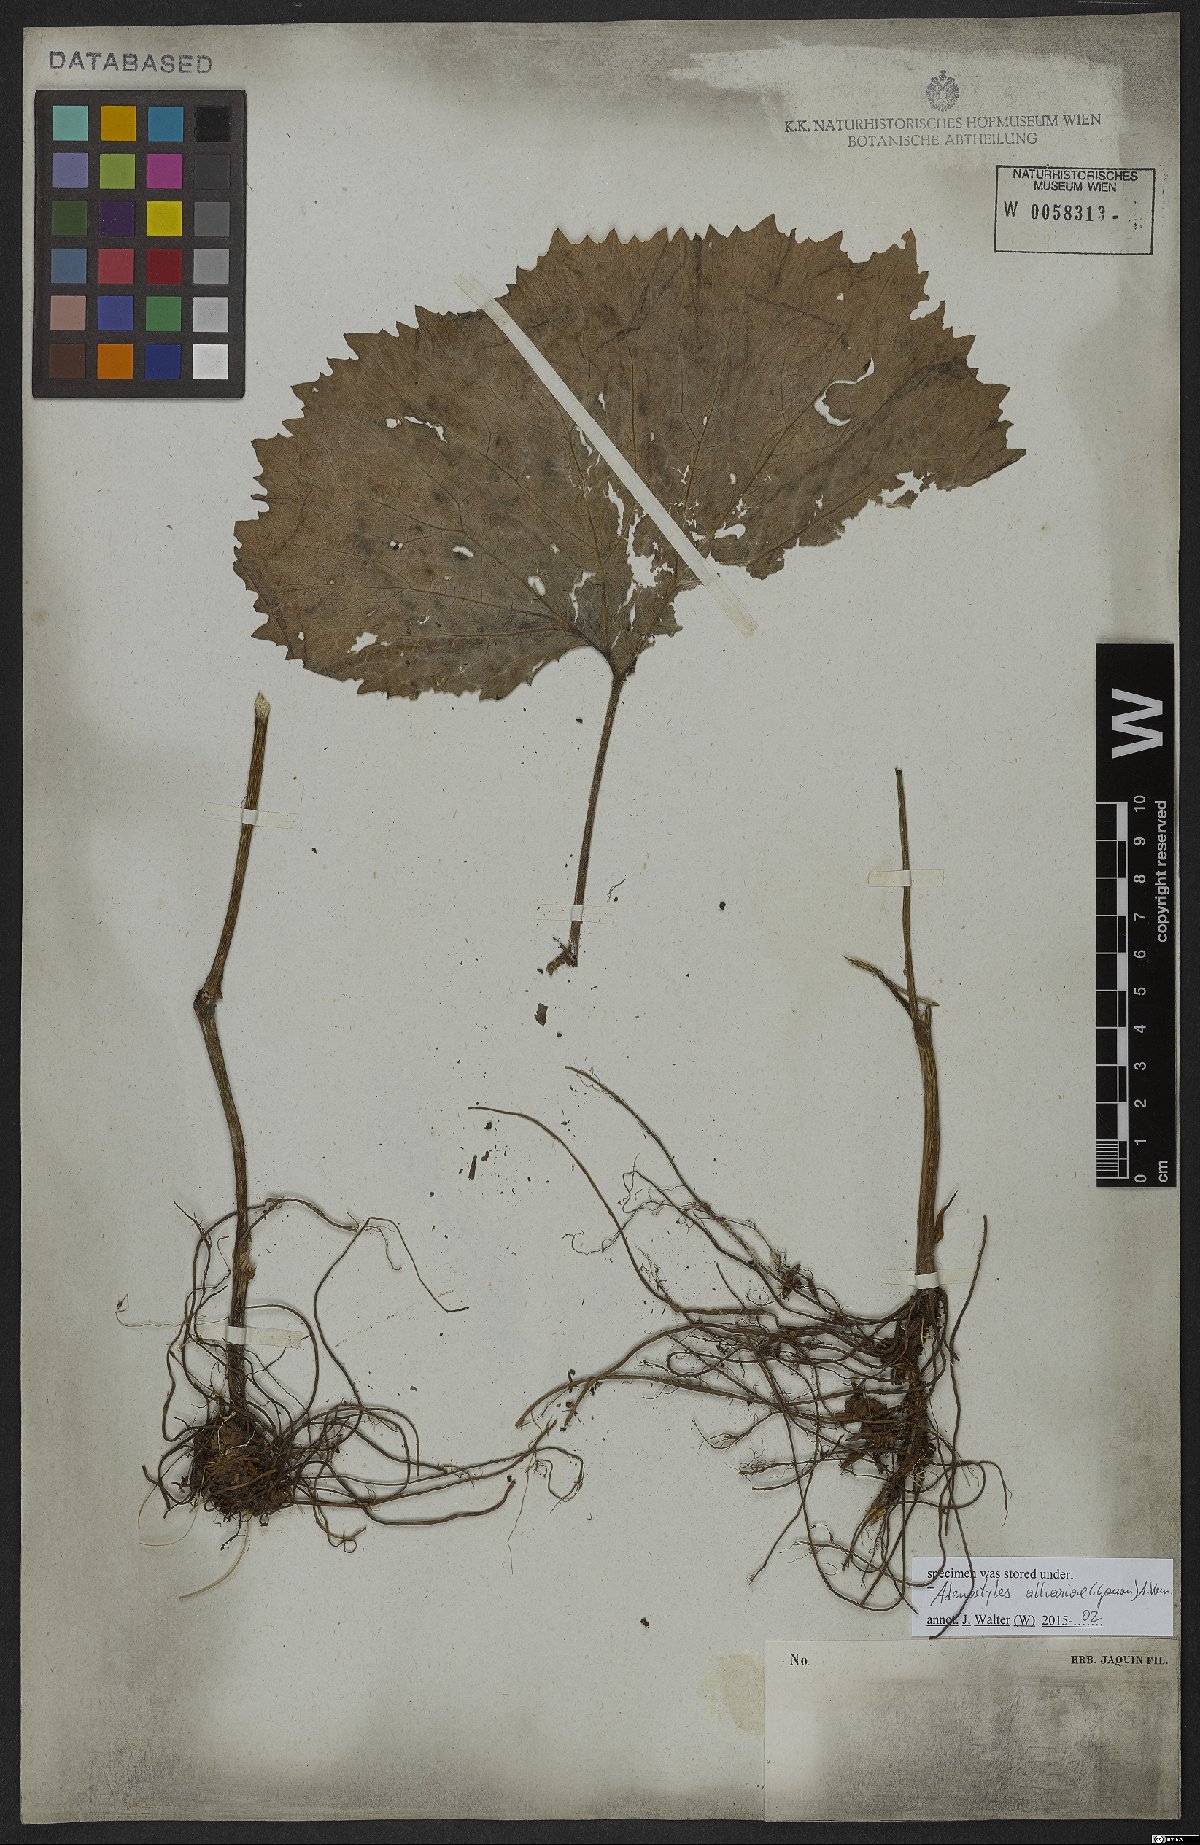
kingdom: Plantae
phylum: Tracheophyta
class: Magnoliopsida
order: Asterales
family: Asteraceae
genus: Adenostyles
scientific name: Adenostyles alliariae
